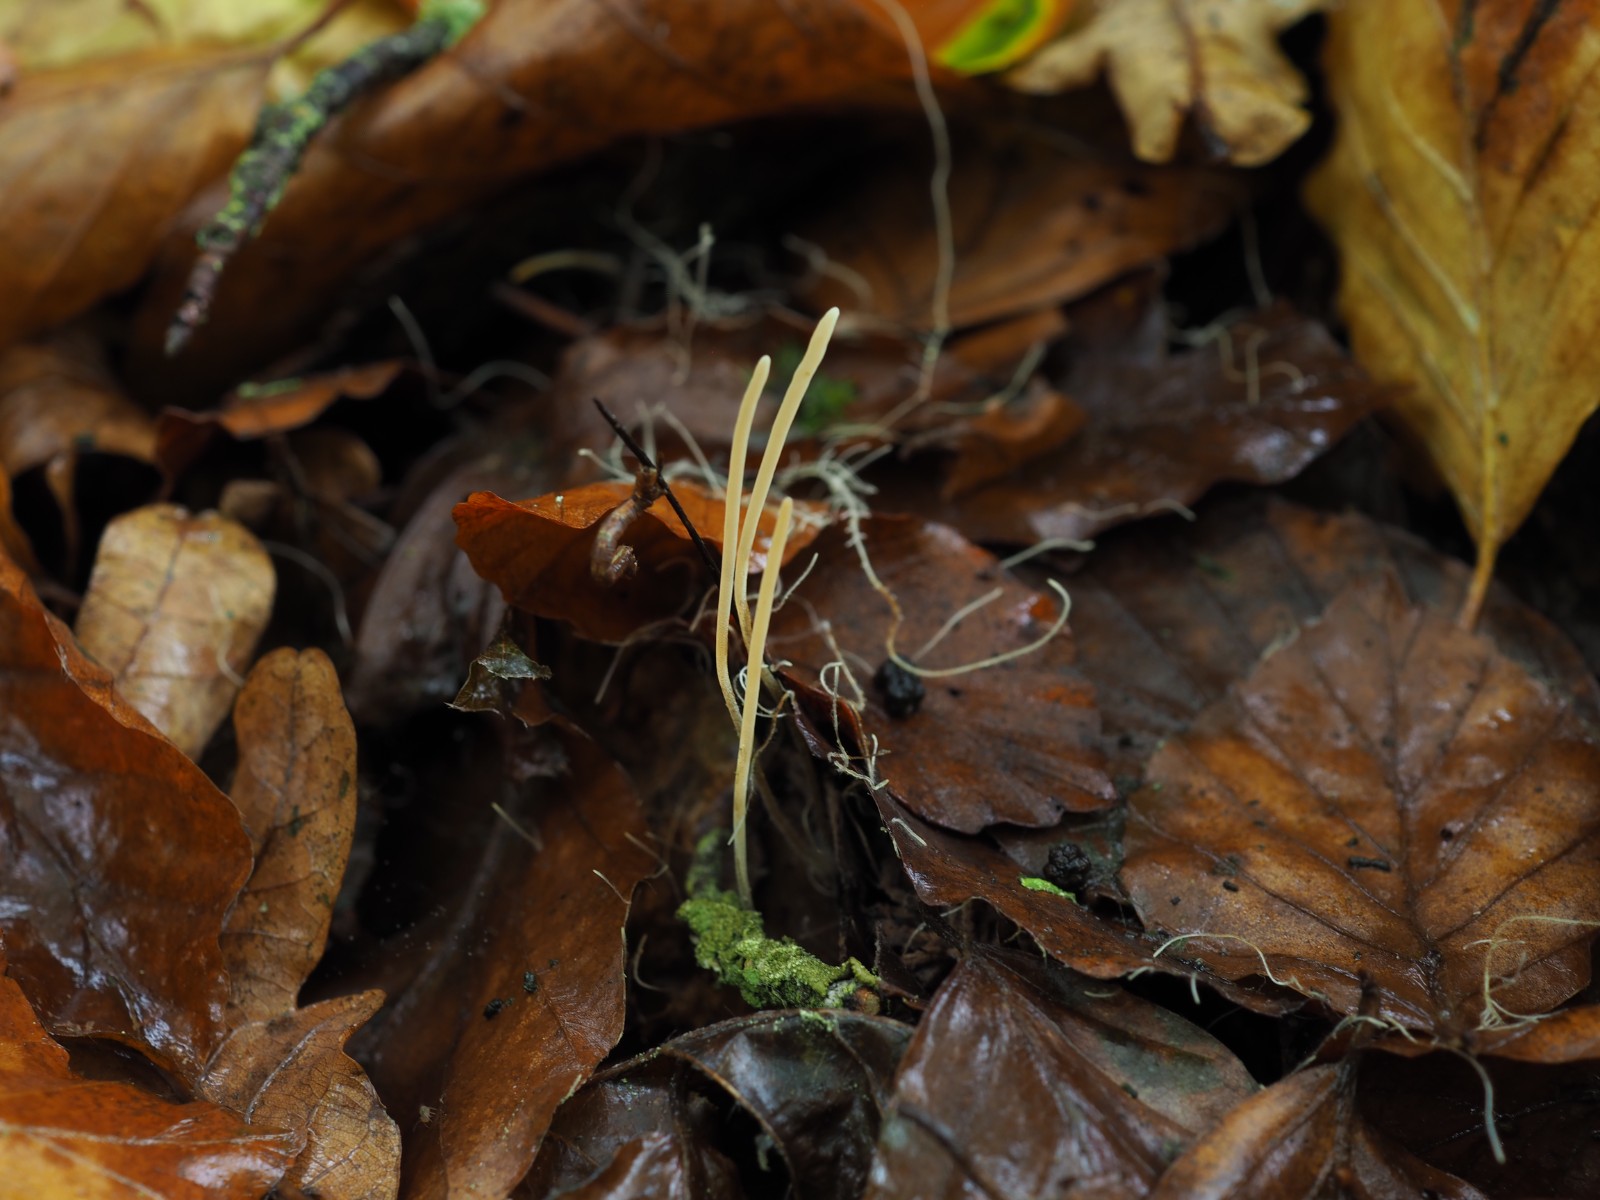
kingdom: Fungi
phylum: Basidiomycota
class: Agaricomycetes
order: Agaricales
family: Typhulaceae
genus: Typhula
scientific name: Typhula juncea
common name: trådagtig rørkølle
